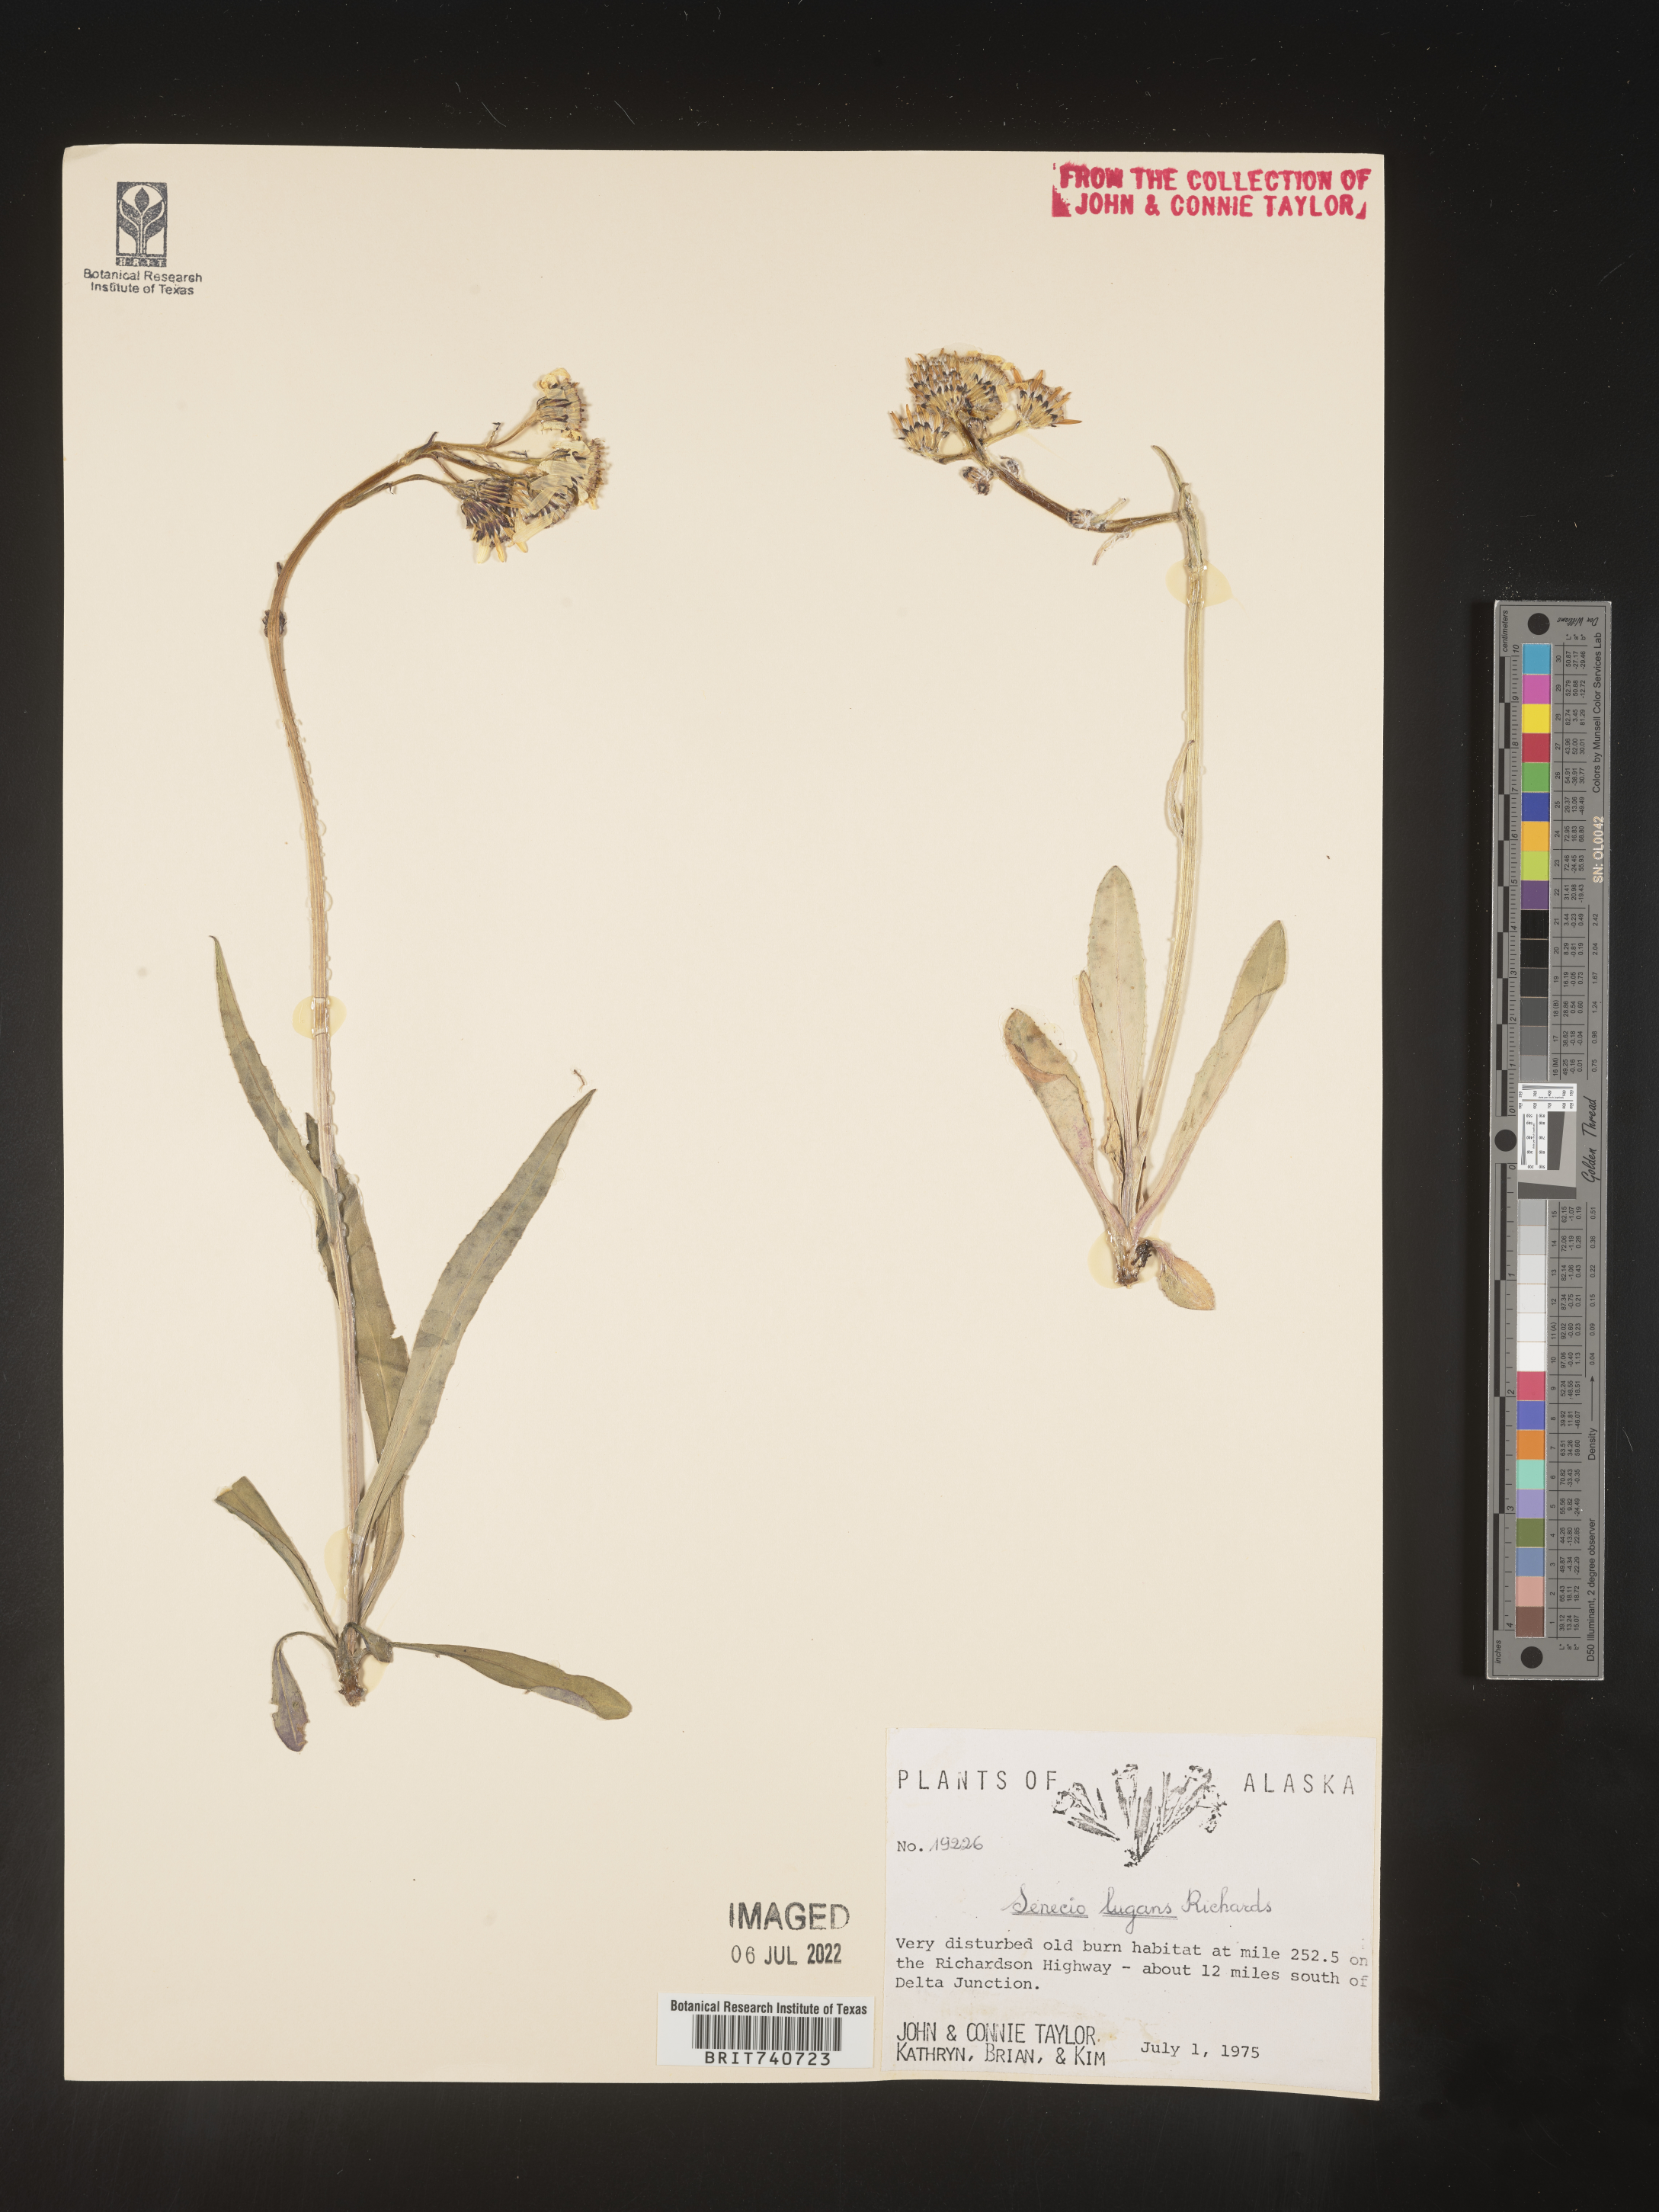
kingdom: Plantae
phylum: Tracheophyta
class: Magnoliopsida
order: Asterales
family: Asteraceae
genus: Senecio
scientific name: Senecio lugens
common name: Black-tip groundsel
